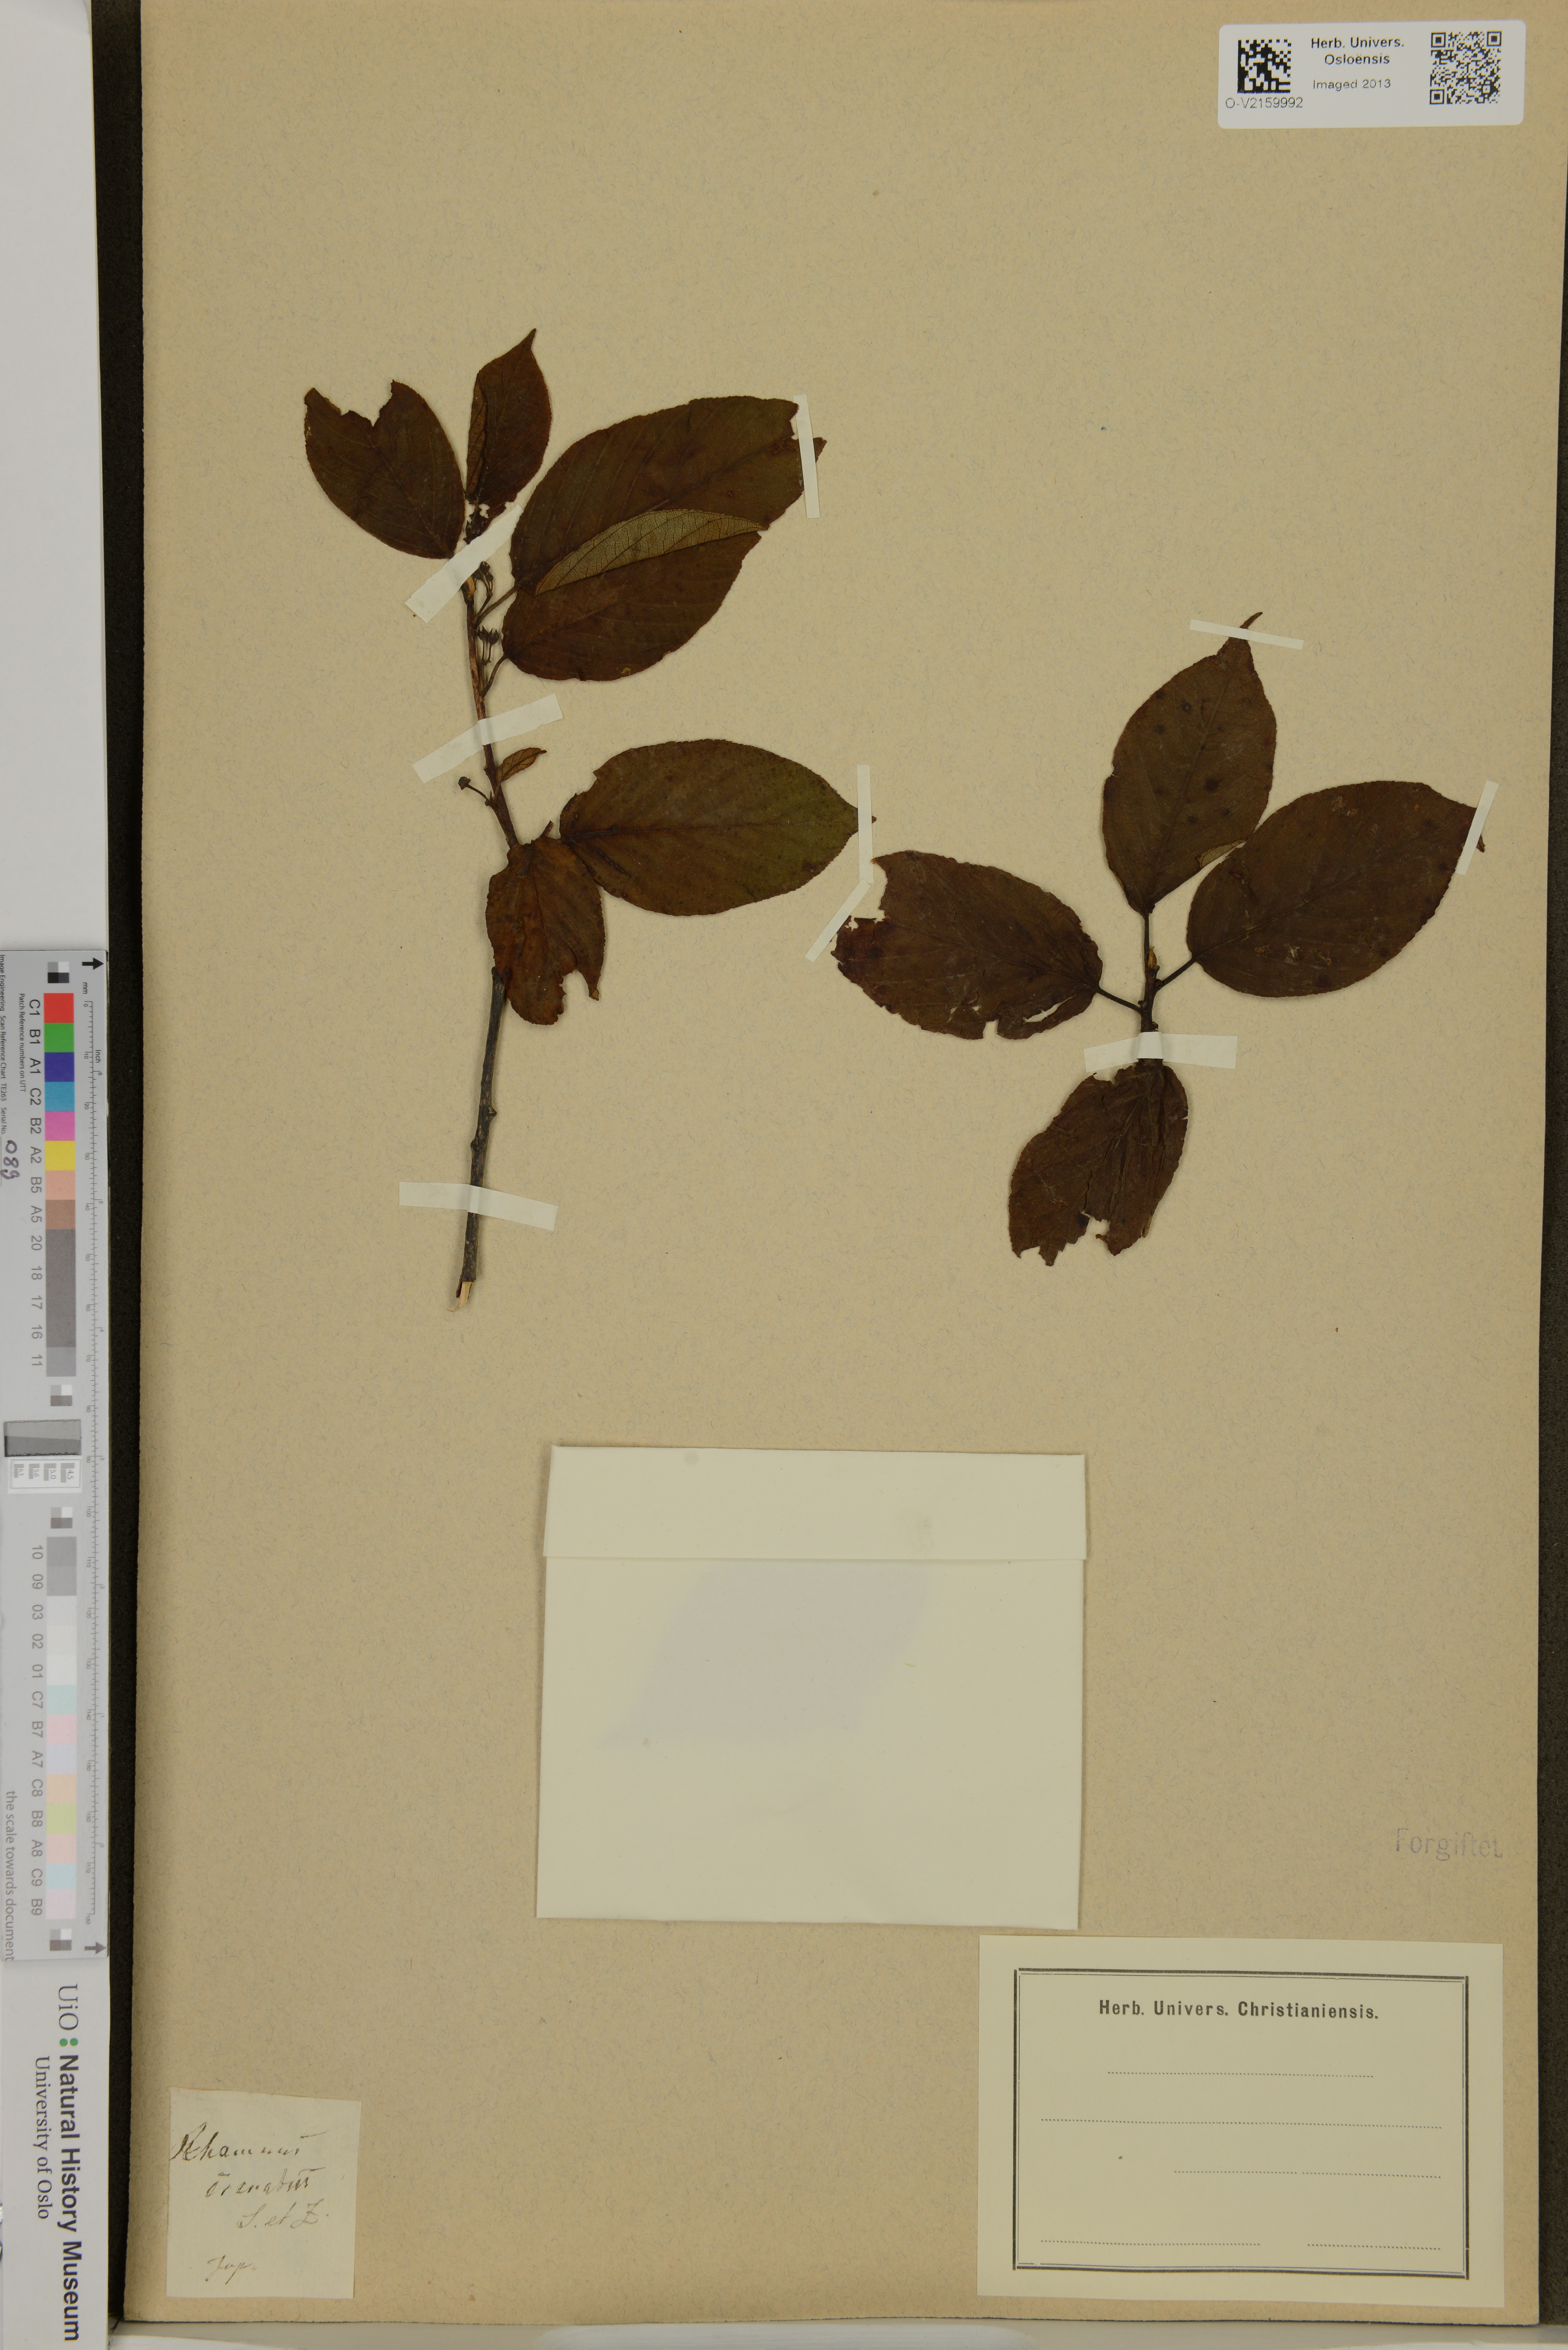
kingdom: Plantae
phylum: Tracheophyta
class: Magnoliopsida
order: Rosales
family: Rhamnaceae
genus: Rhamnus
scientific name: Rhamnus
